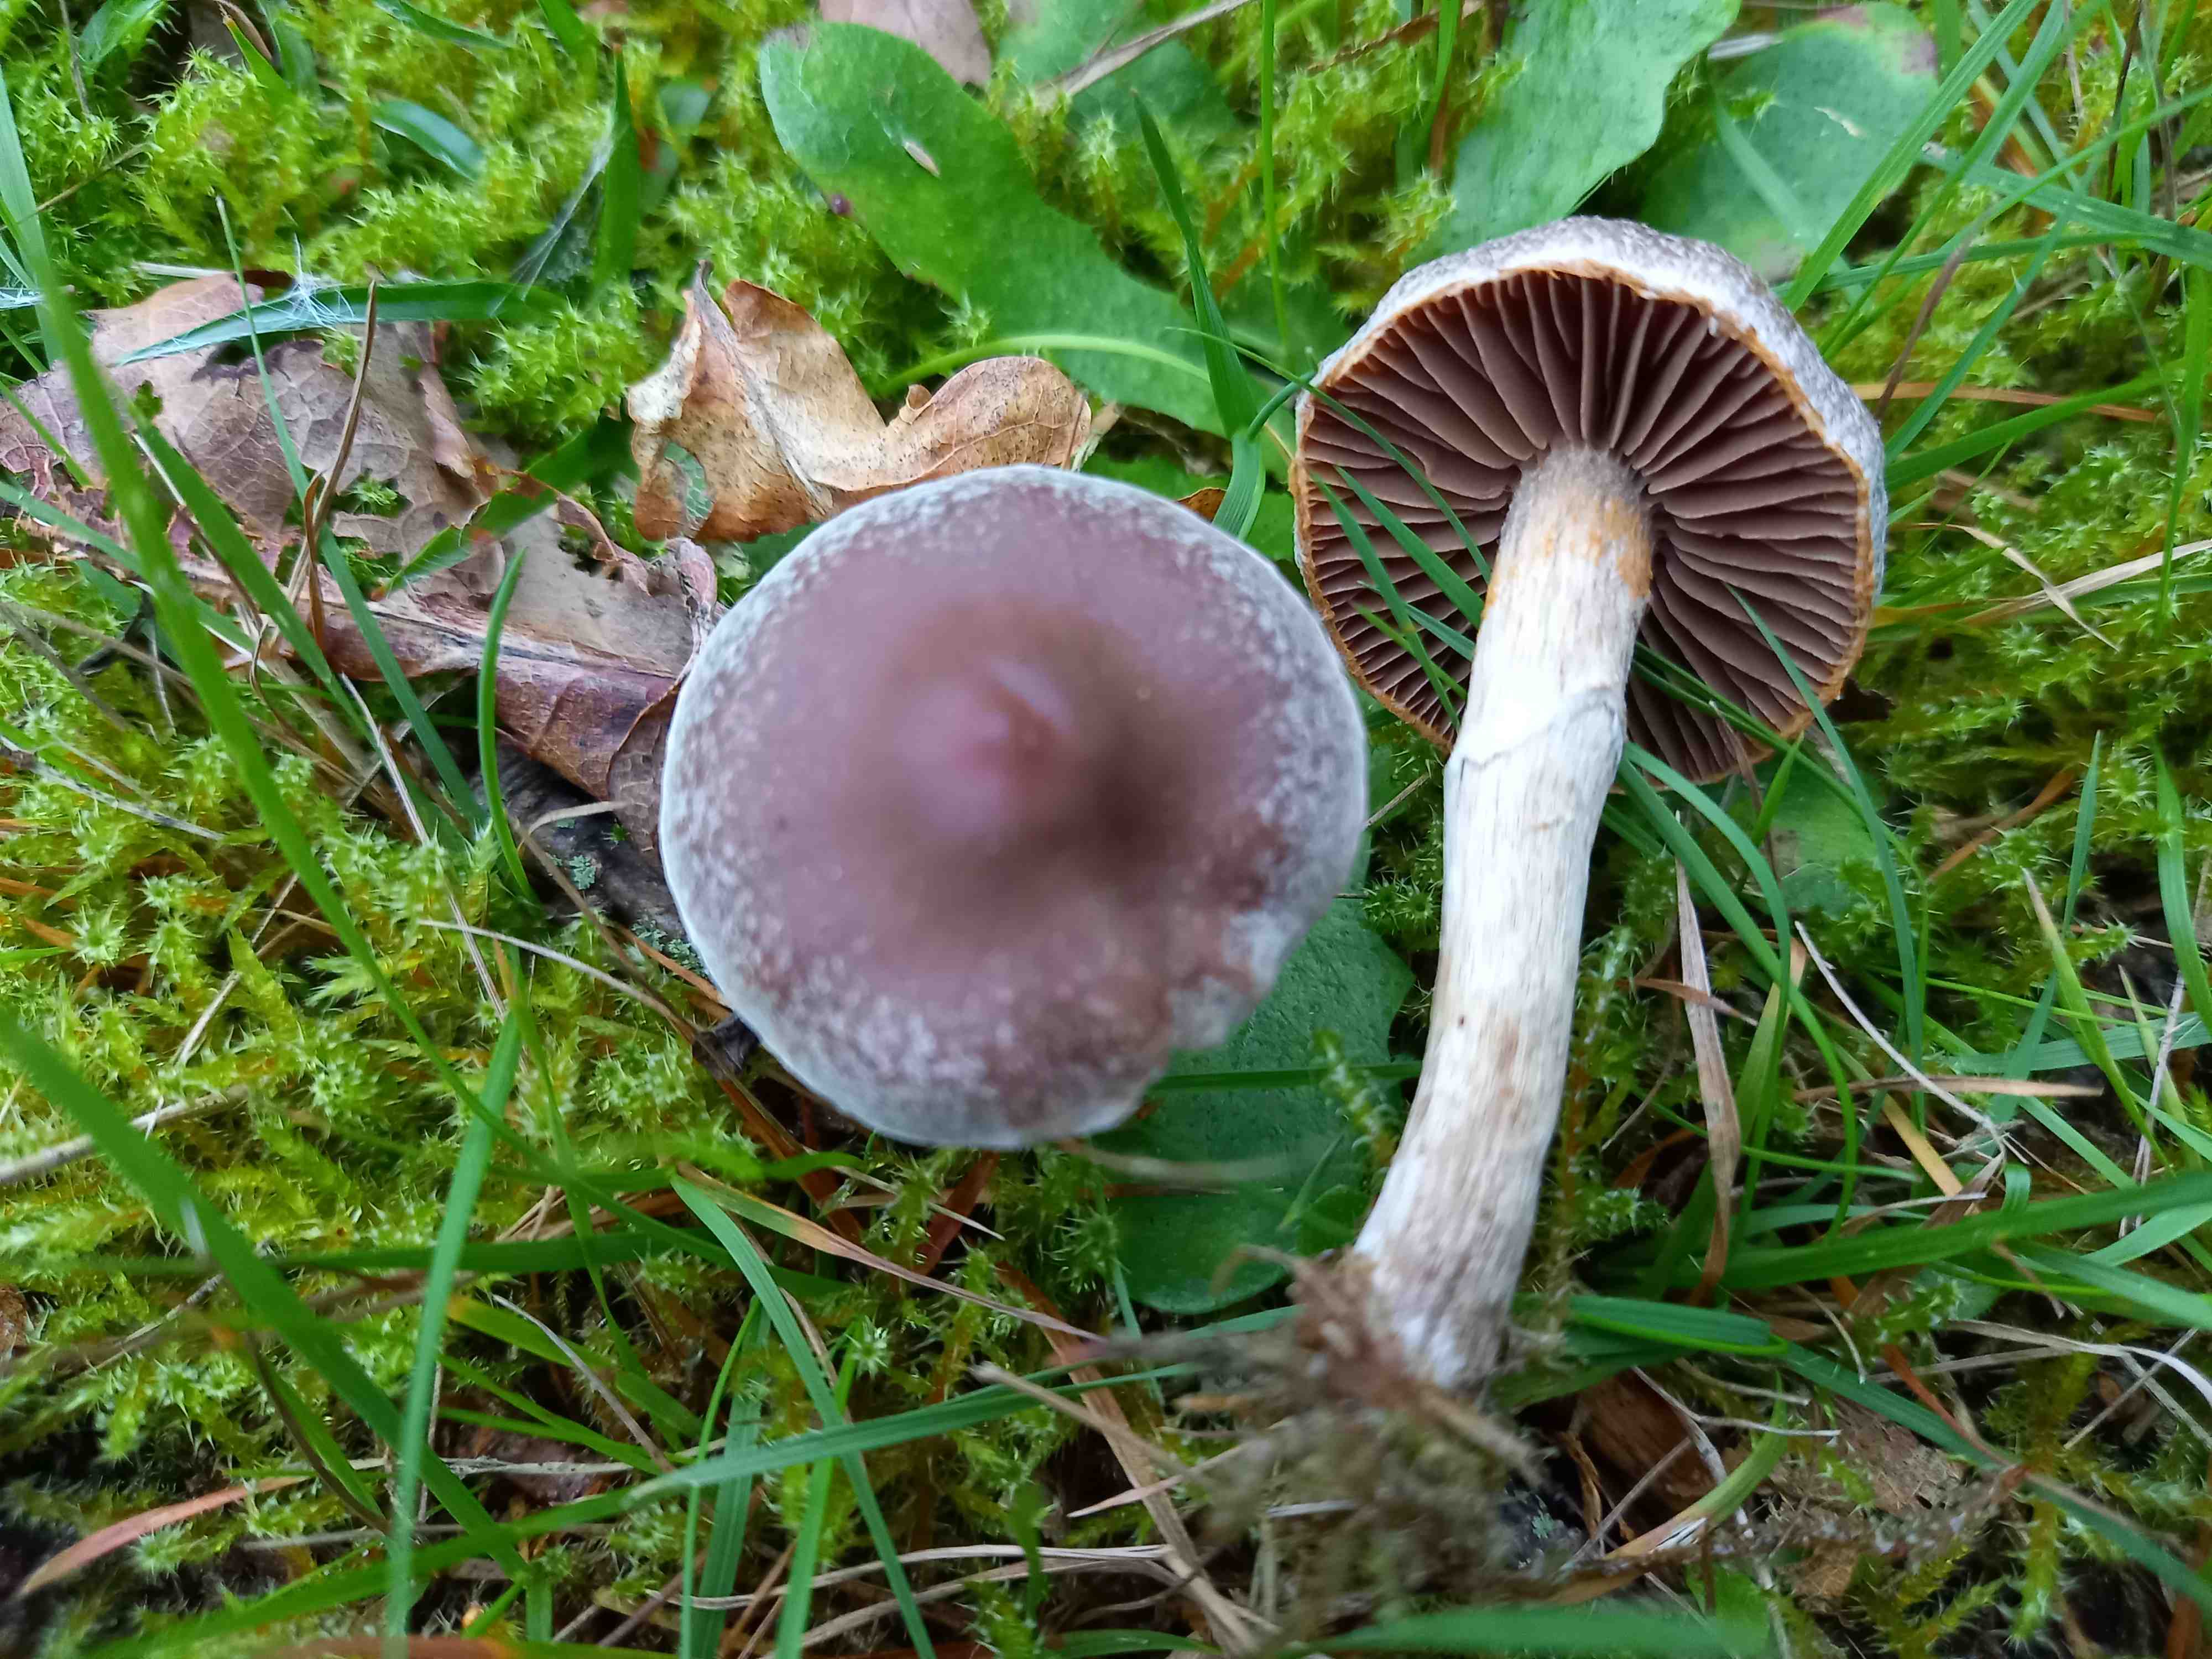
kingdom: Fungi
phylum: Basidiomycota
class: Agaricomycetes
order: Agaricales
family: Cortinariaceae
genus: Cortinarius
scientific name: Cortinarius
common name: pelargonie-slørhat
